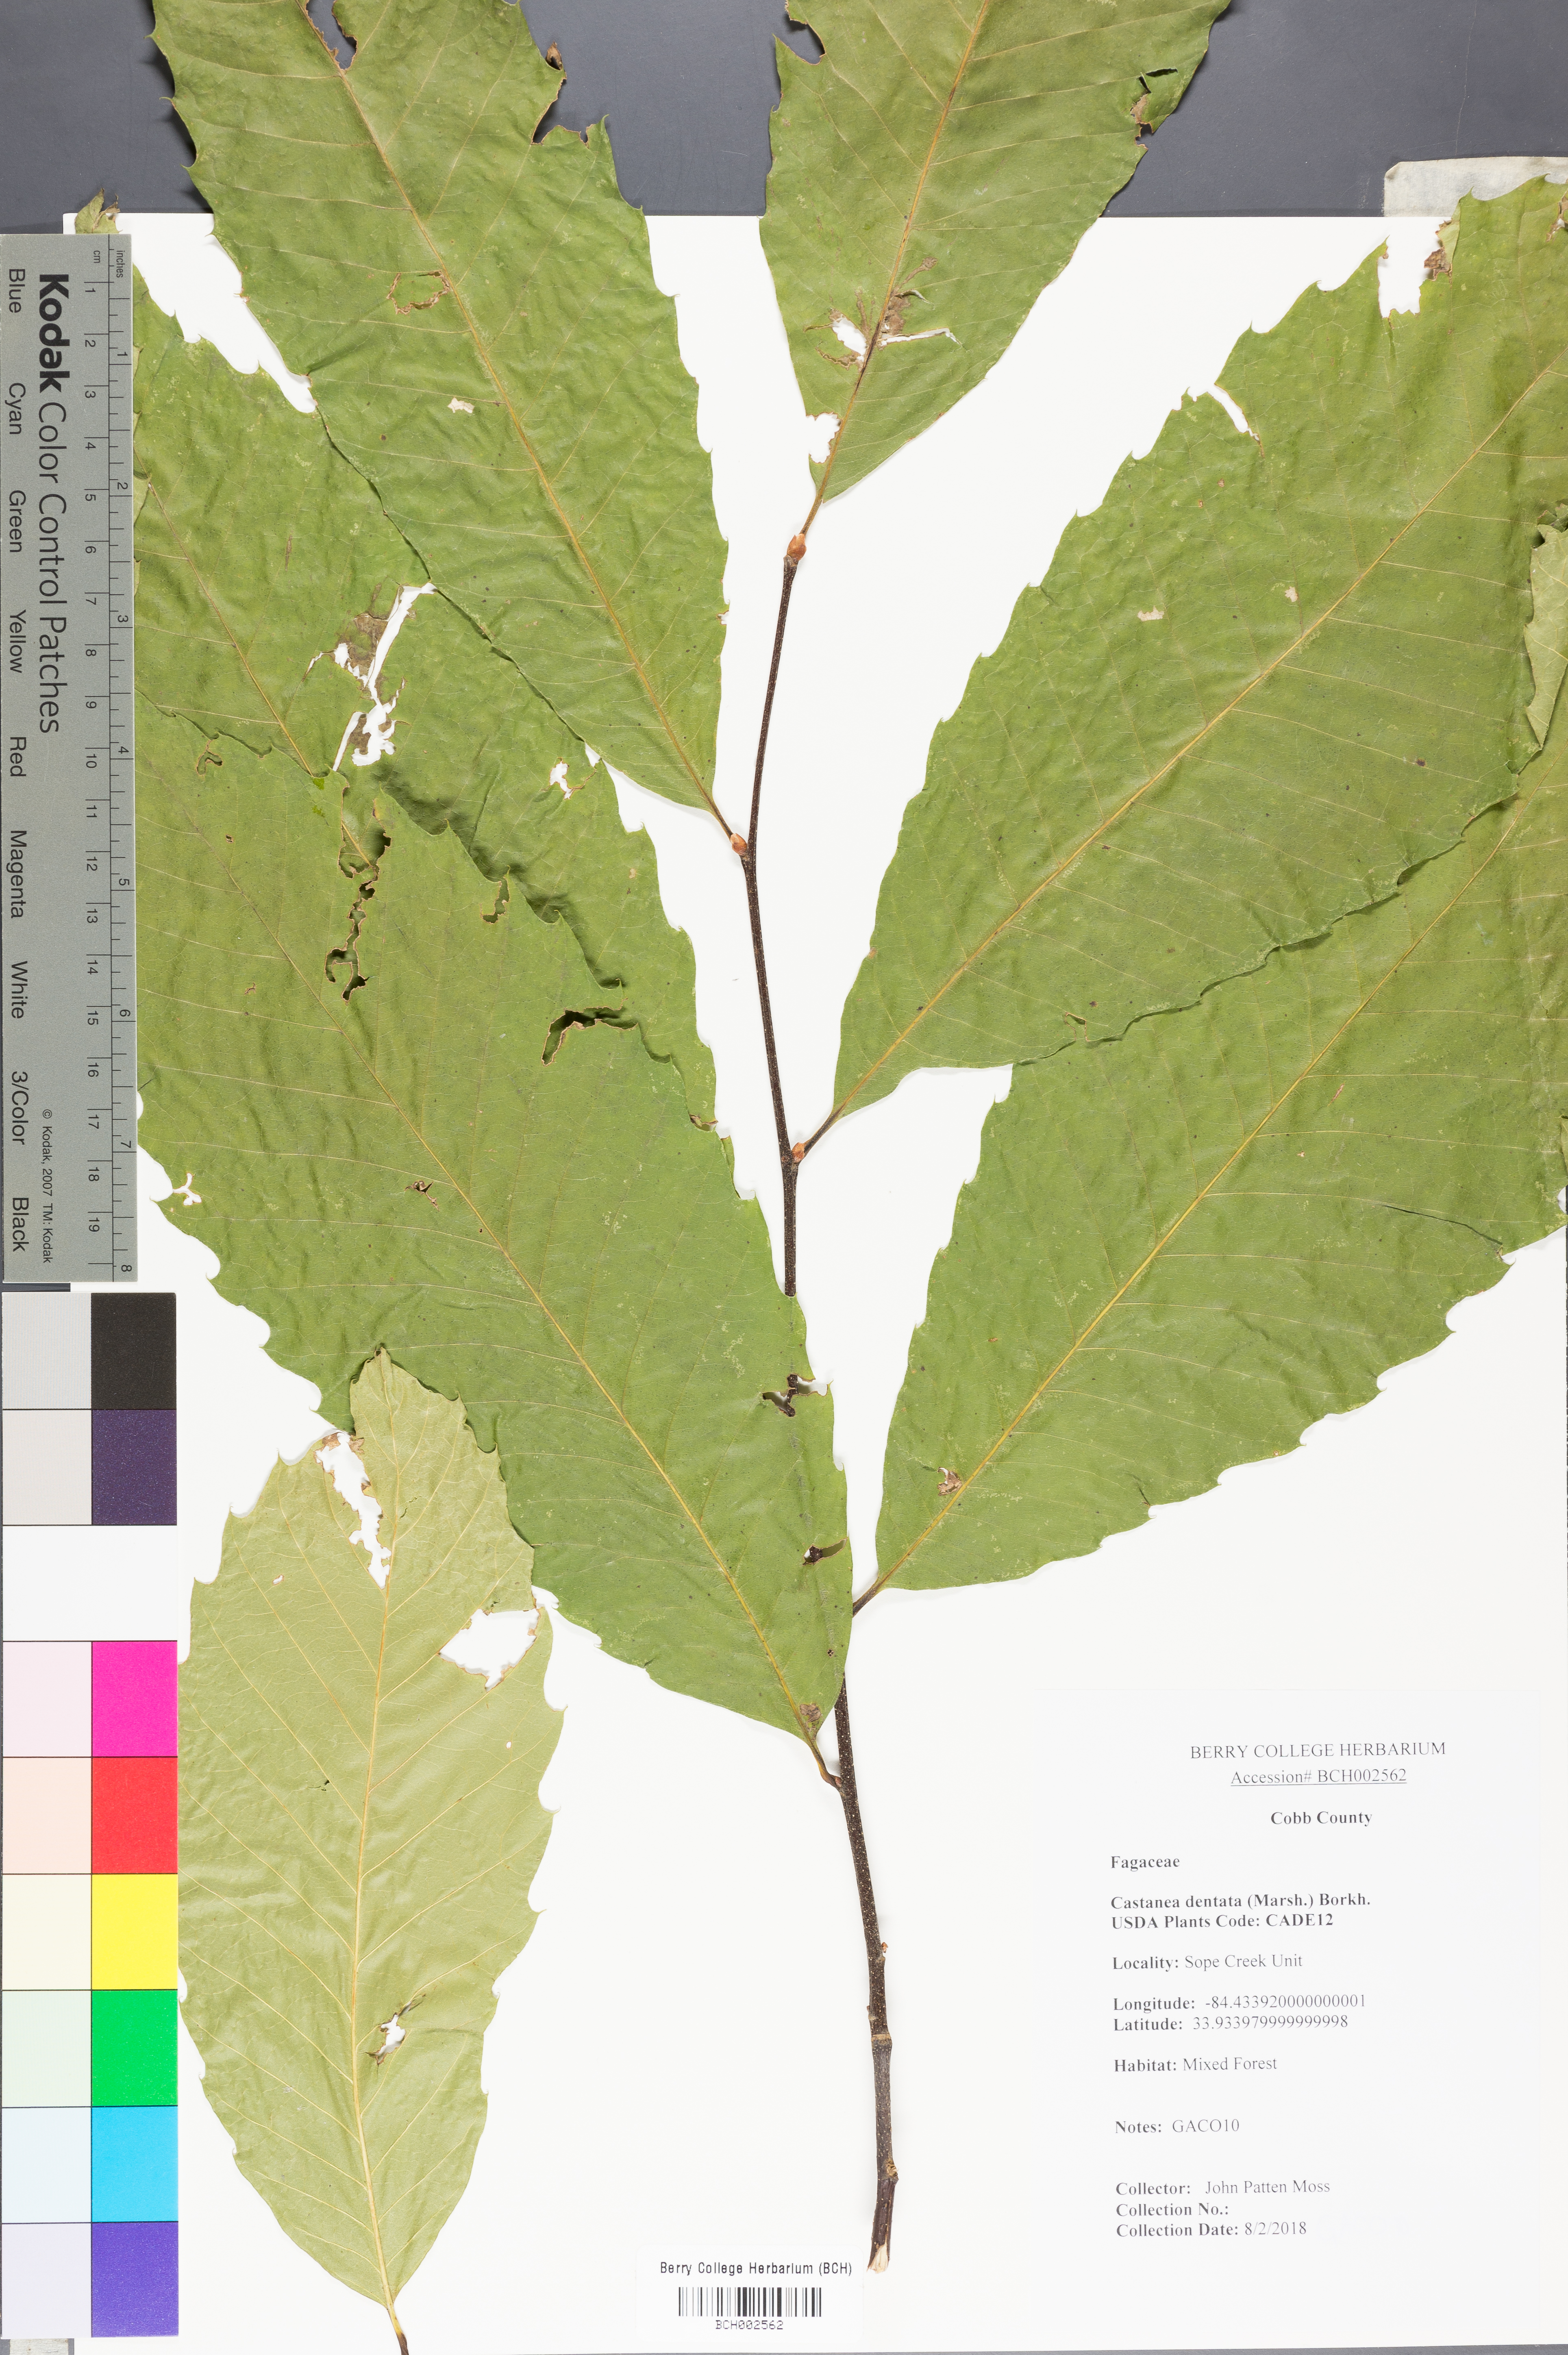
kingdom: Plantae
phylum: Tracheophyta
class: Magnoliopsida
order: Fagales
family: Fagaceae
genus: Castanea
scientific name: Castanea dentata
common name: American chestnut
